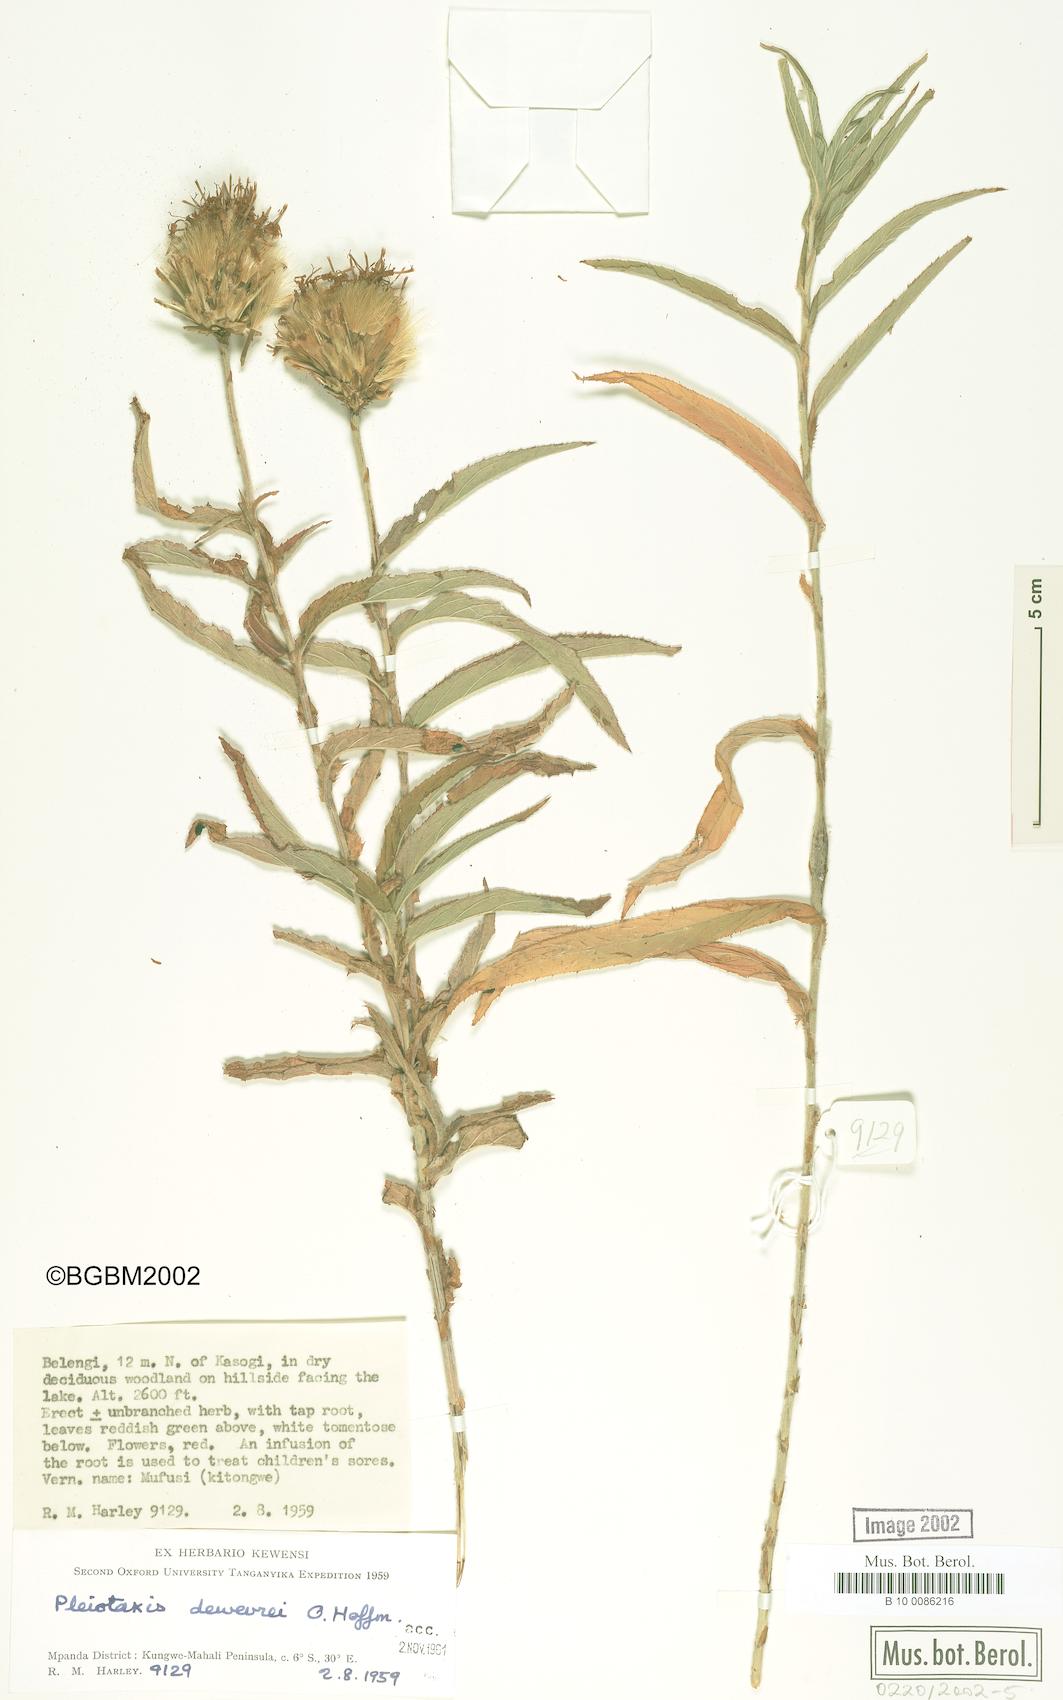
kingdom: Plantae
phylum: Tracheophyta
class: Magnoliopsida
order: Asterales
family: Asteraceae
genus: Pleiotaxis
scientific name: Pleiotaxis dewevrei
